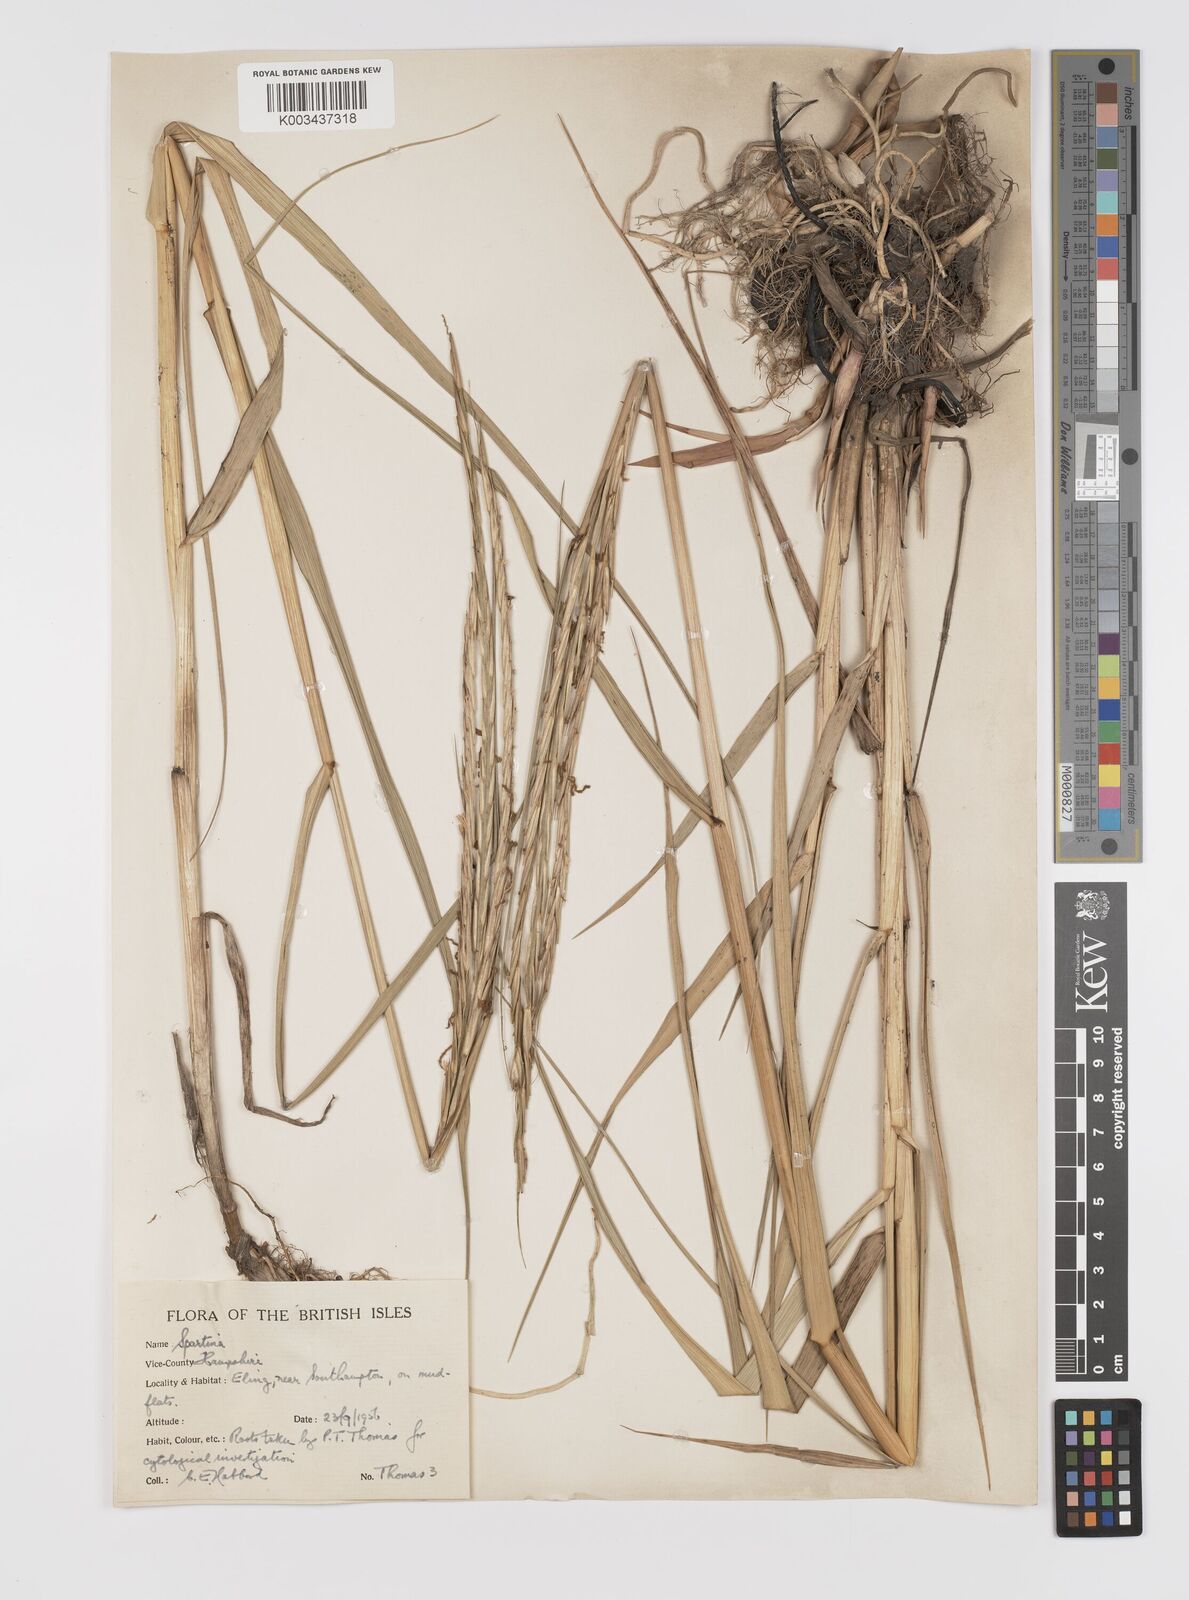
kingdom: Plantae
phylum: Tracheophyta
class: Liliopsida
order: Poales
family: Poaceae
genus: Sporobolus
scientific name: Sporobolus townsendii
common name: Townsend's cordgrass
